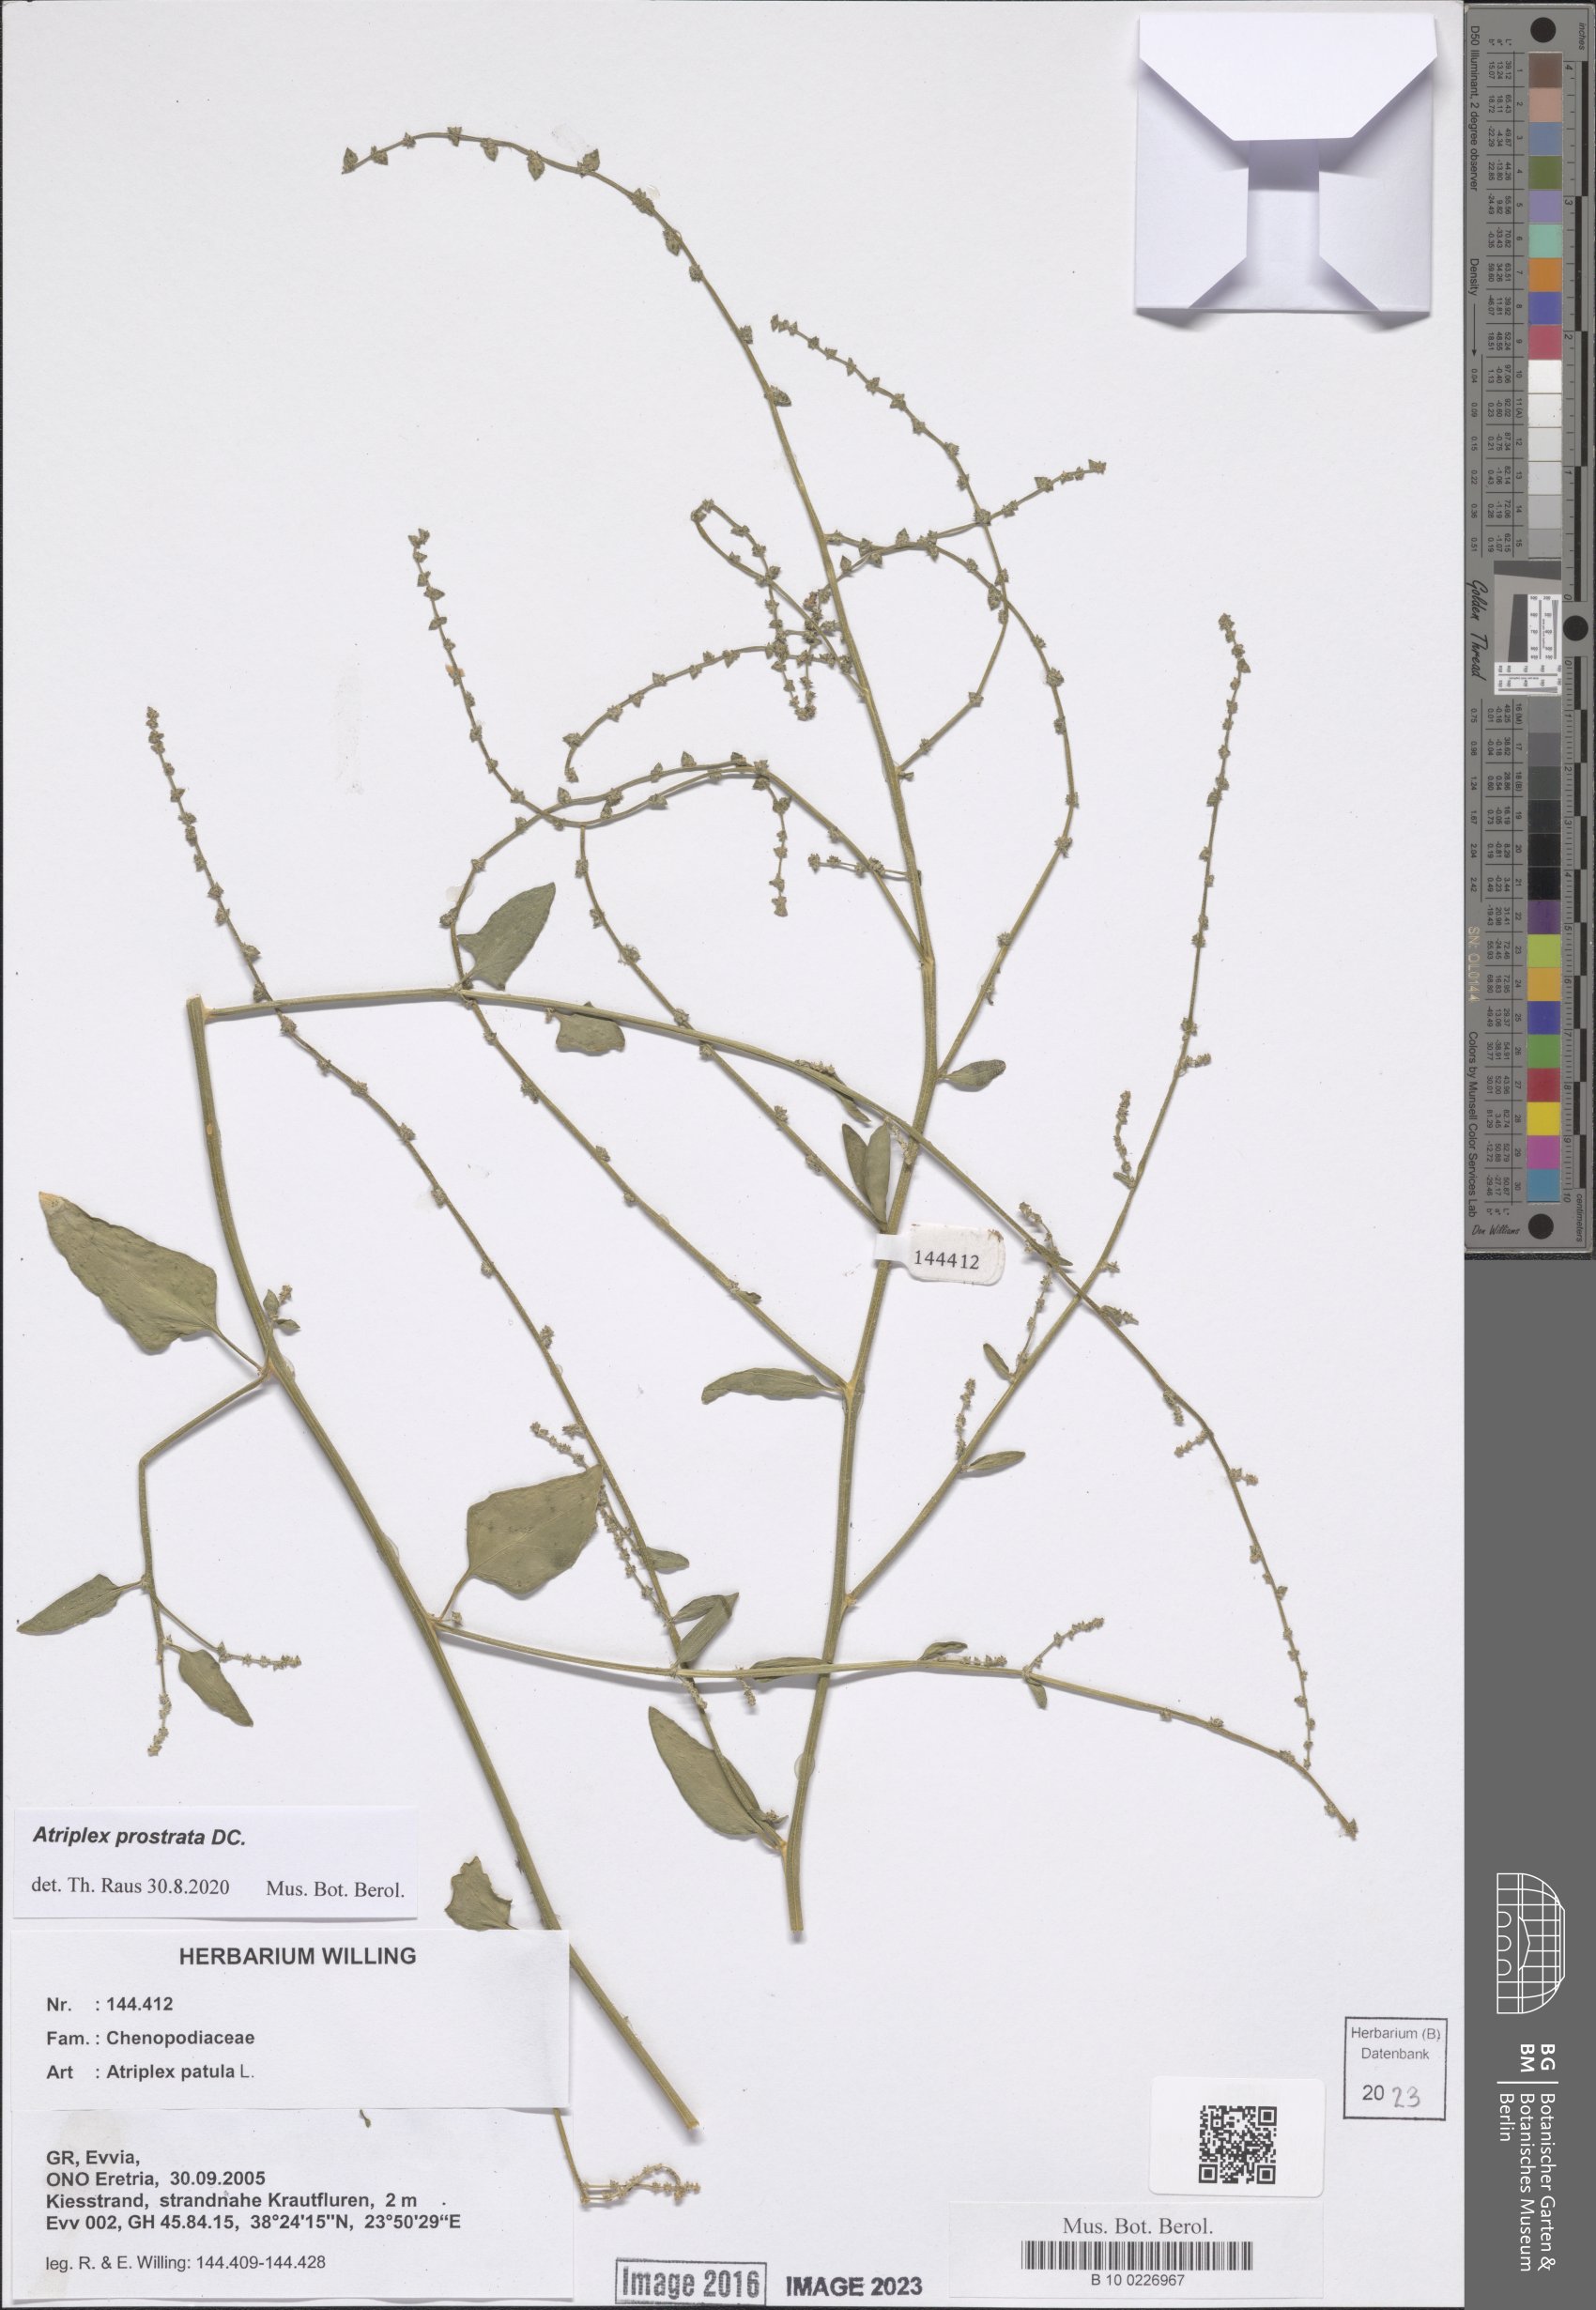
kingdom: Plantae
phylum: Tracheophyta
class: Magnoliopsida
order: Caryophyllales
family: Amaranthaceae
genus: Atriplex
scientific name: Atriplex prostrata
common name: Spear-leaved orache
